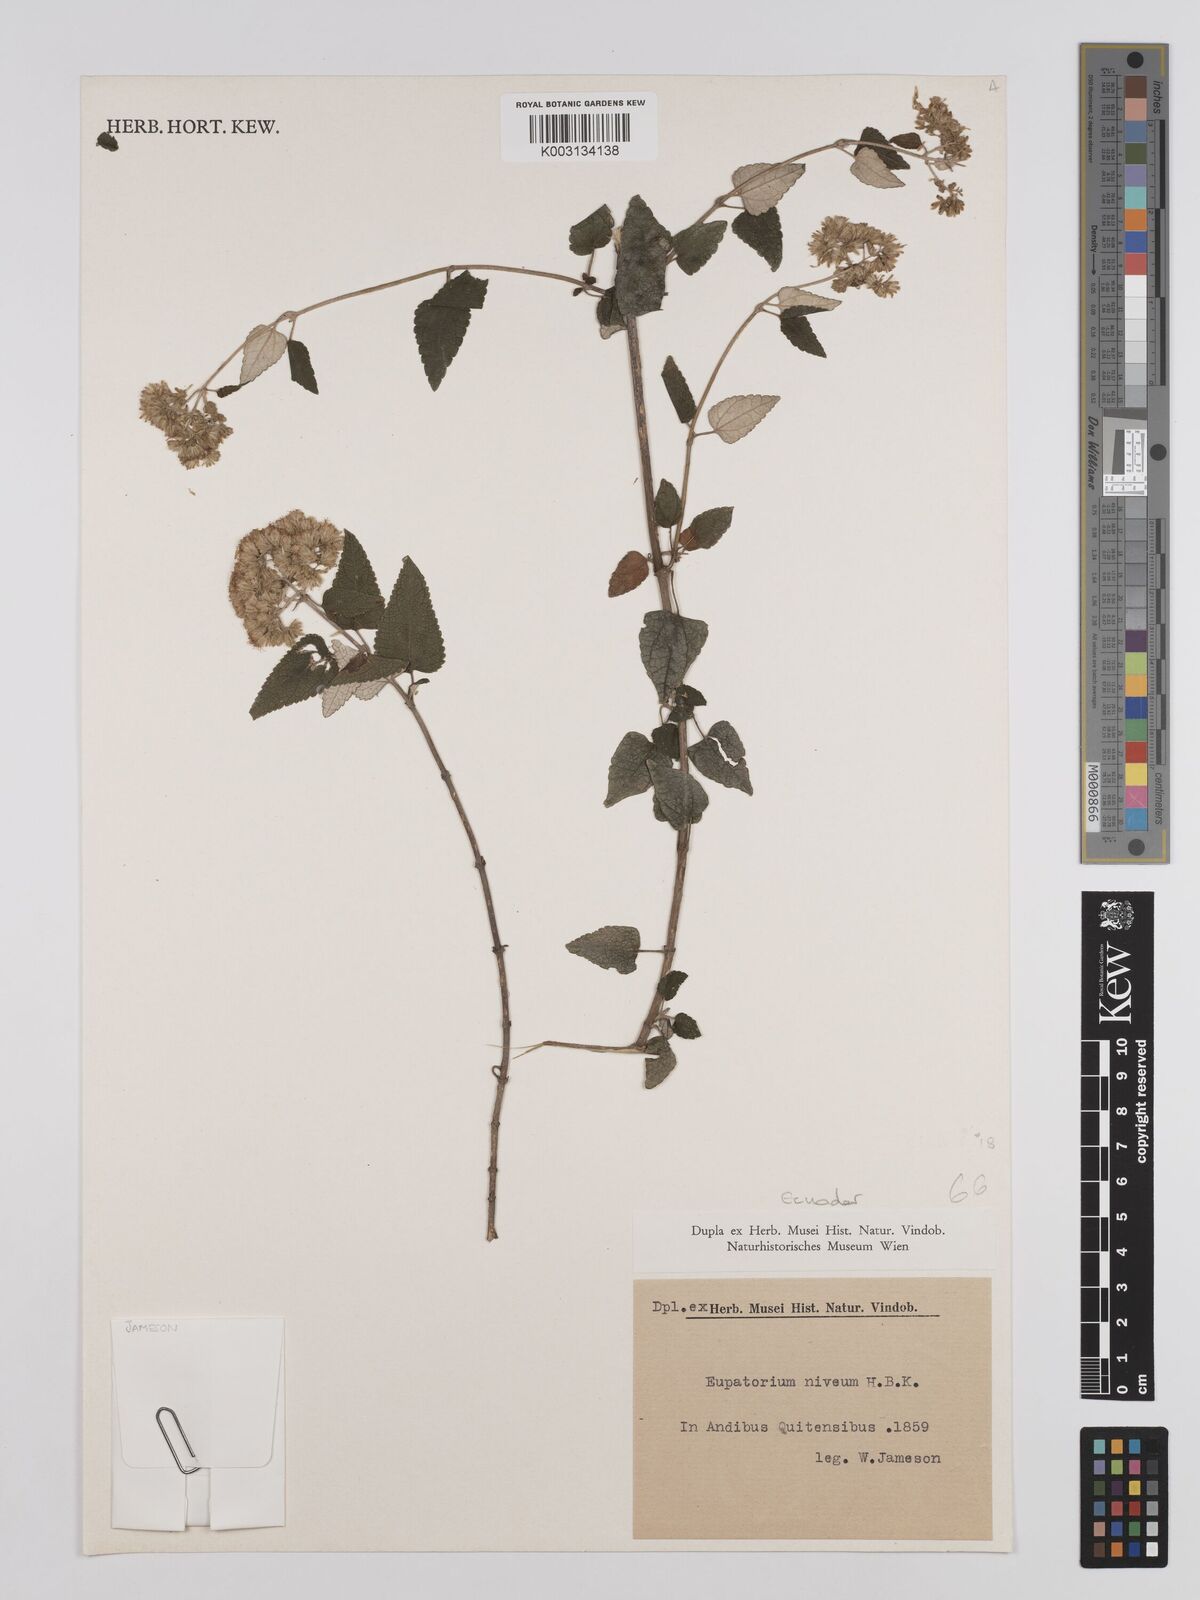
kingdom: Plantae
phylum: Tracheophyta
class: Magnoliopsida
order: Asterales
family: Asteraceae
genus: Cronquistianthus
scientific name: Cronquistianthus niveus
